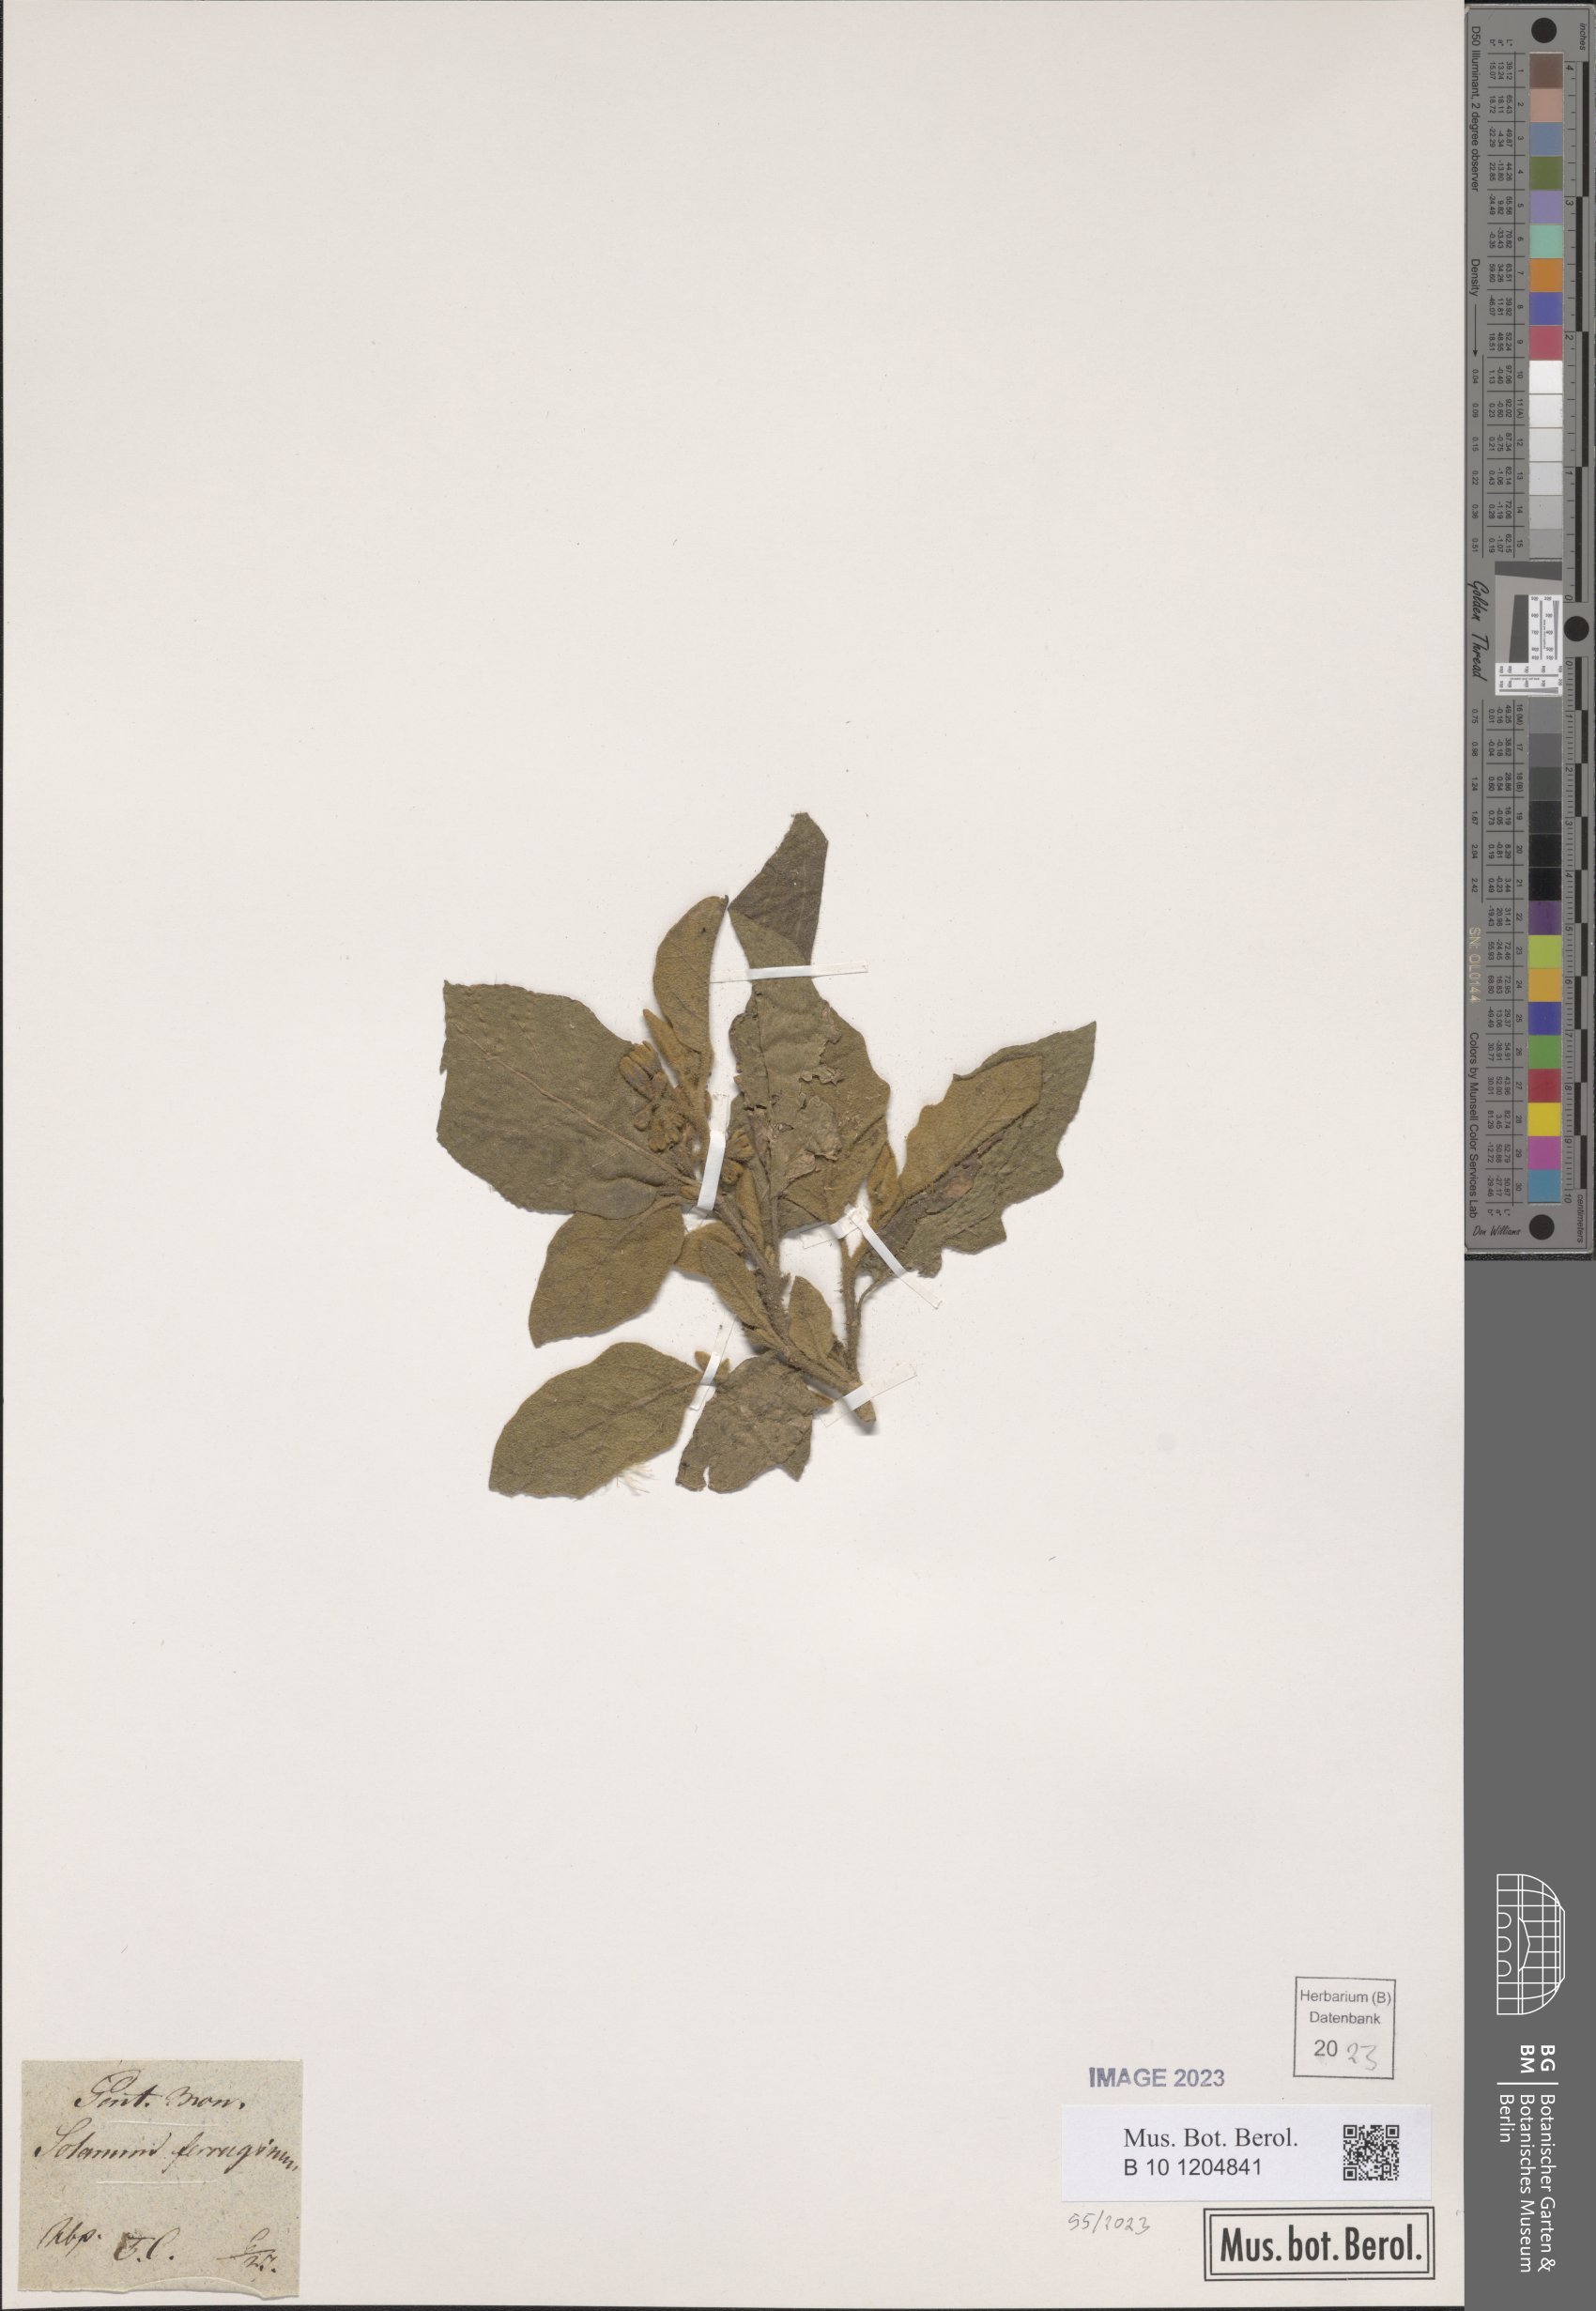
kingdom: Plantae
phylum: Tracheophyta
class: Magnoliopsida
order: Solanales
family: Solanaceae
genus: Solanum
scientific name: Solanum ferrugineum
